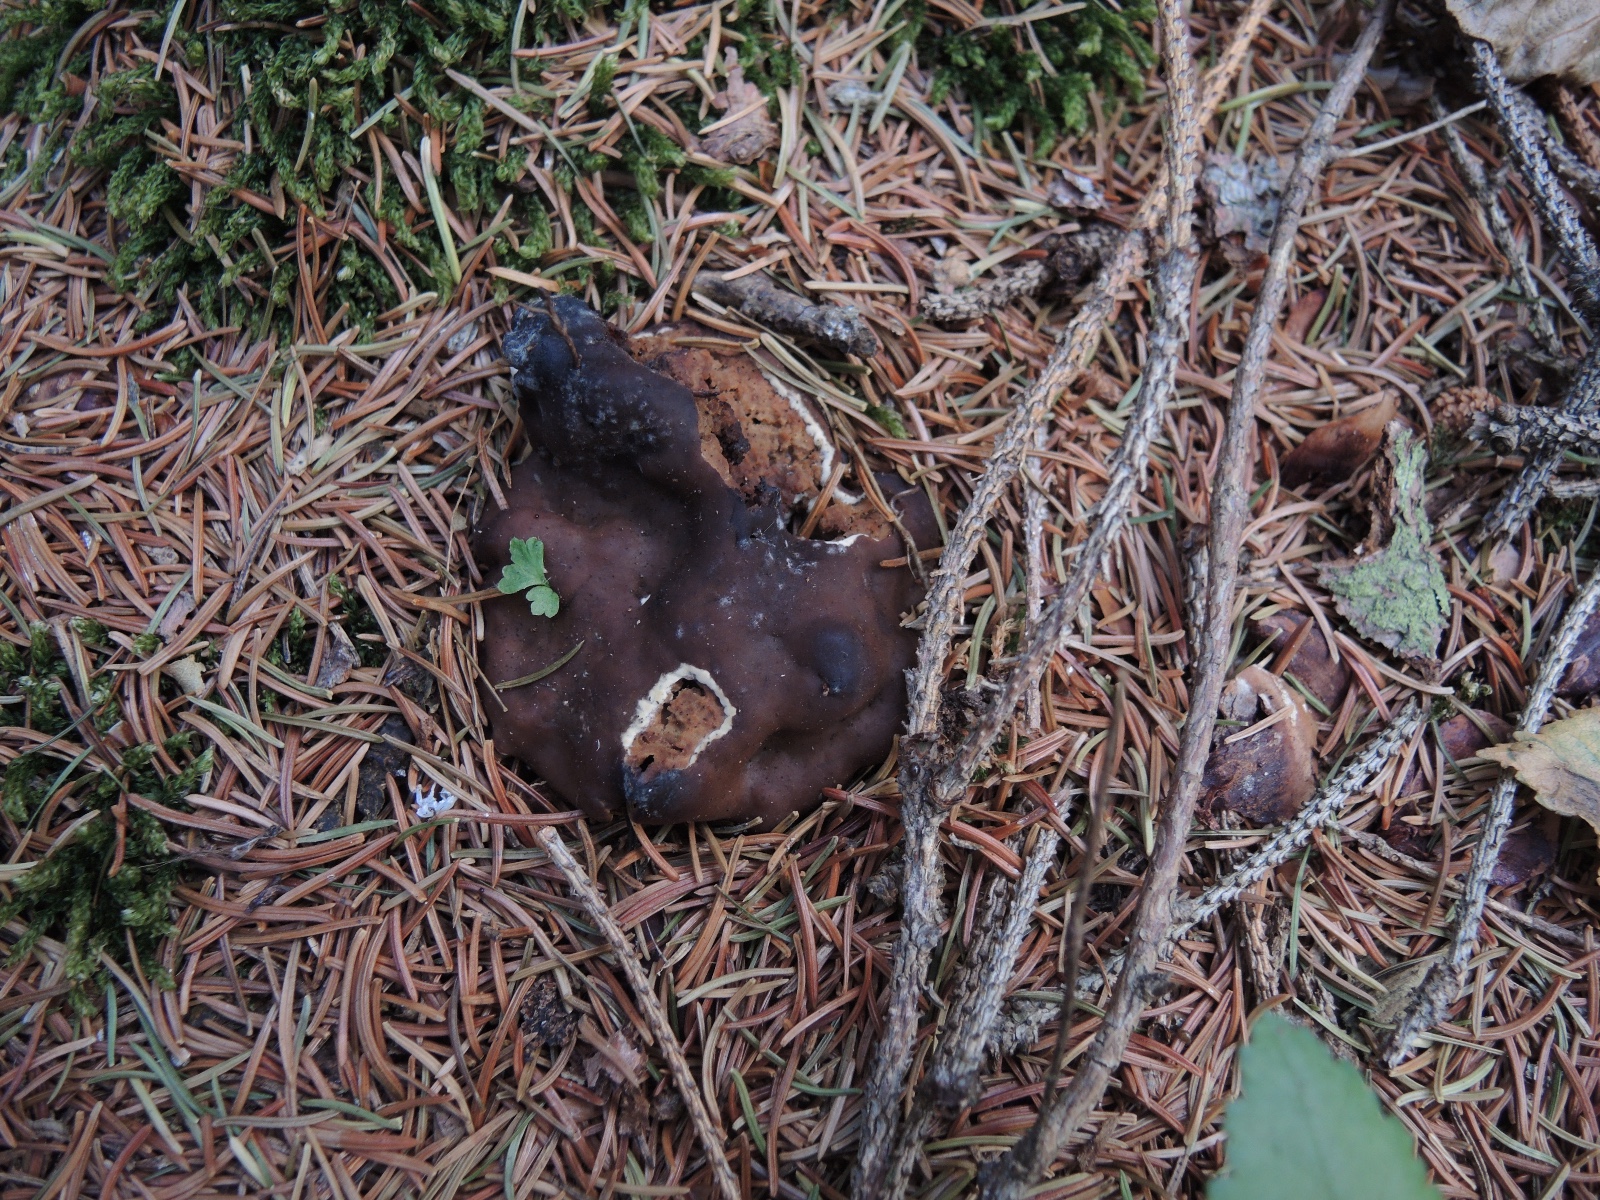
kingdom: Fungi
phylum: Ascomycota
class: Pezizomycetes
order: Pezizales
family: Rhizinaceae
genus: Rhizina
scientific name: Rhizina undulata
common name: rodmorkel
